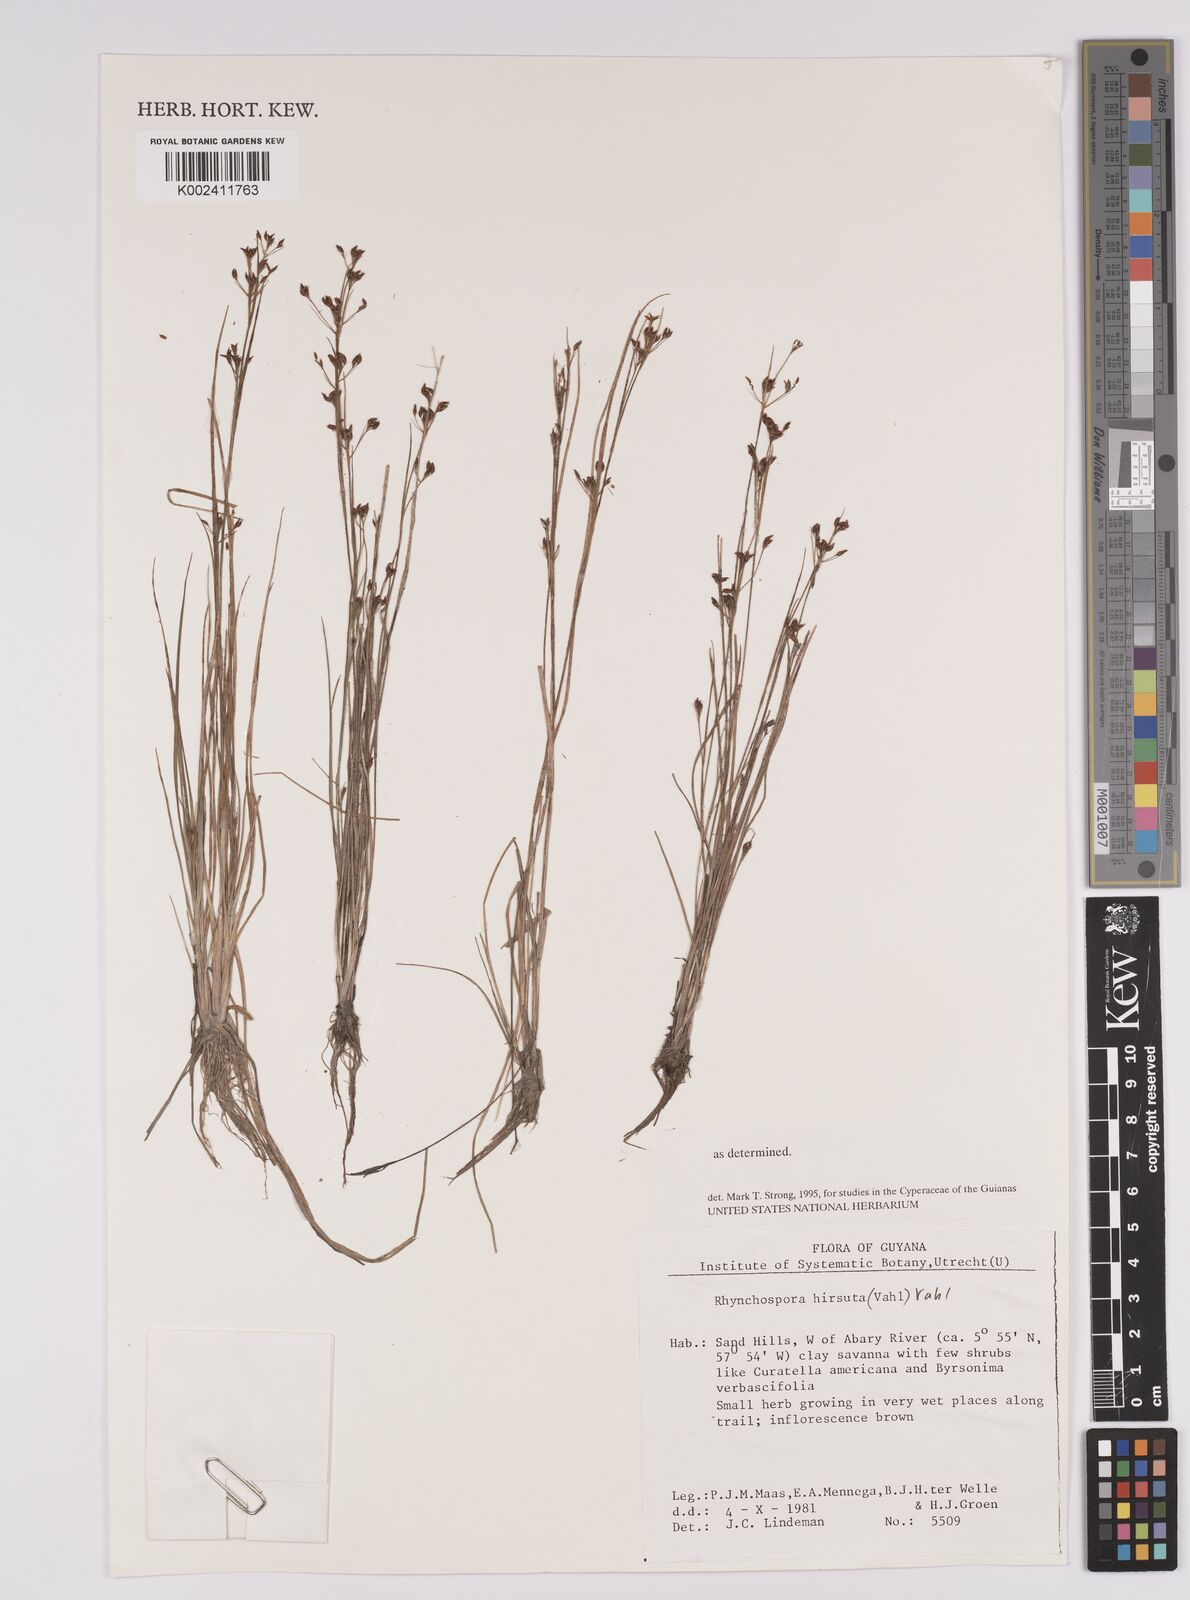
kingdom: Plantae
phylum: Tracheophyta
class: Liliopsida
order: Poales
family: Cyperaceae
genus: Rhynchospora
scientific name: Rhynchospora hirsuta
